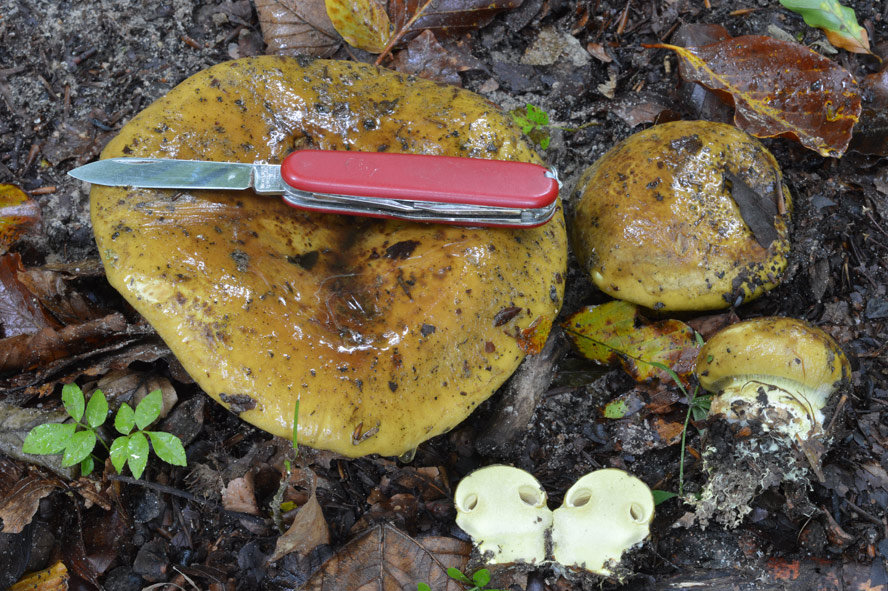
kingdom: Fungi
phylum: Basidiomycota
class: Agaricomycetes
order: Agaricales
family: Cortinariaceae
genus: Calonarius
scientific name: Calonarius citrinus
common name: citrongul slørhat
